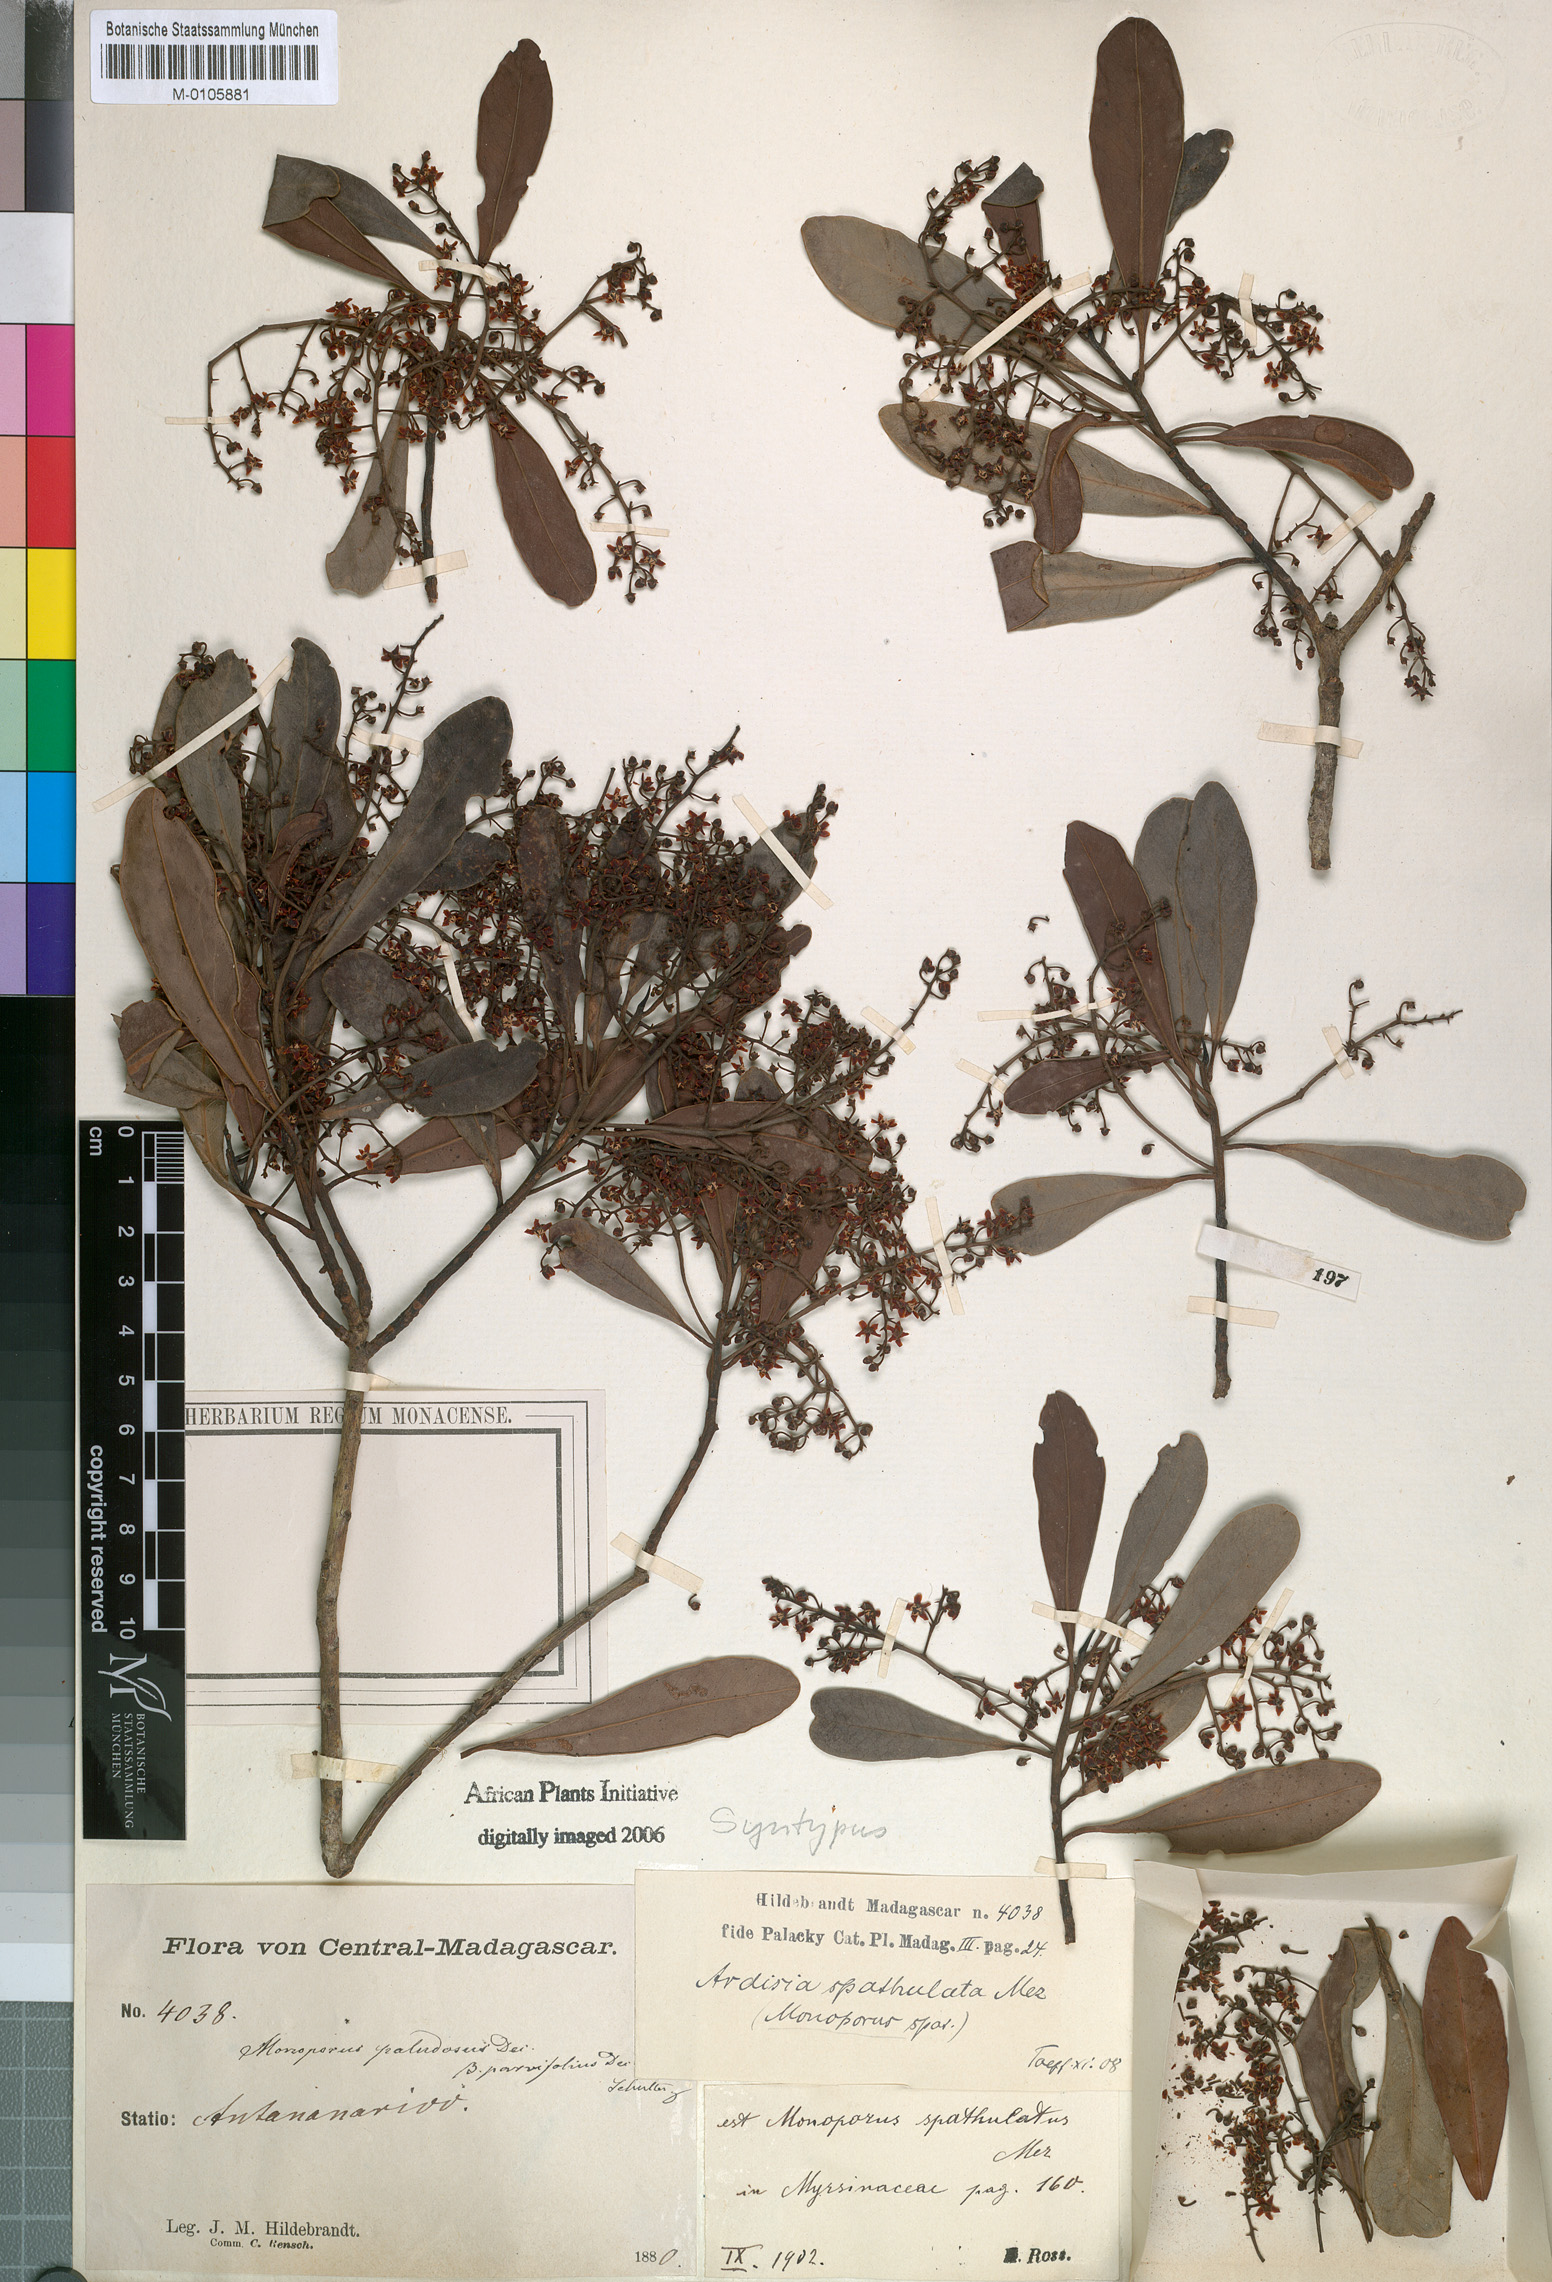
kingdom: Plantae
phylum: Tracheophyta
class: Magnoliopsida
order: Ericales
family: Primulaceae
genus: Monoporus
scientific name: Monoporus spathulatus
